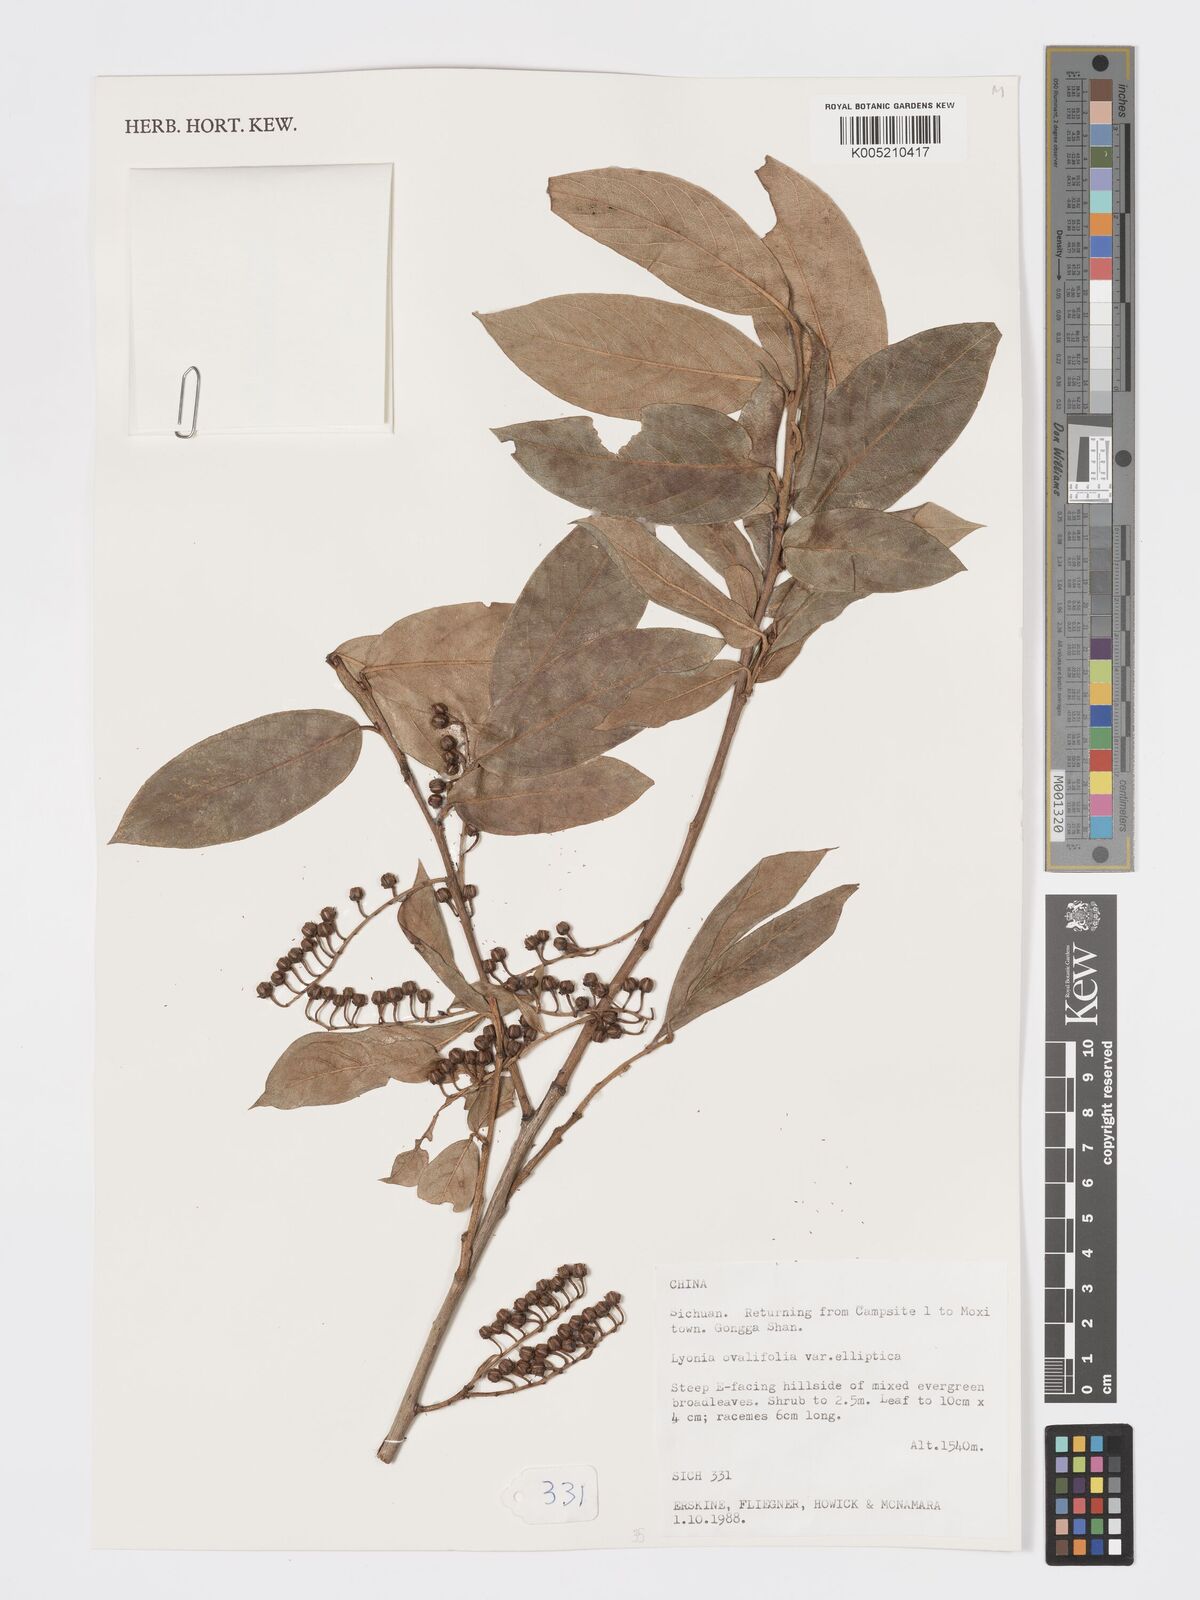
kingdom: Plantae
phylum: Tracheophyta
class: Magnoliopsida
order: Ericales
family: Ericaceae
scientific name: Ericaceae
